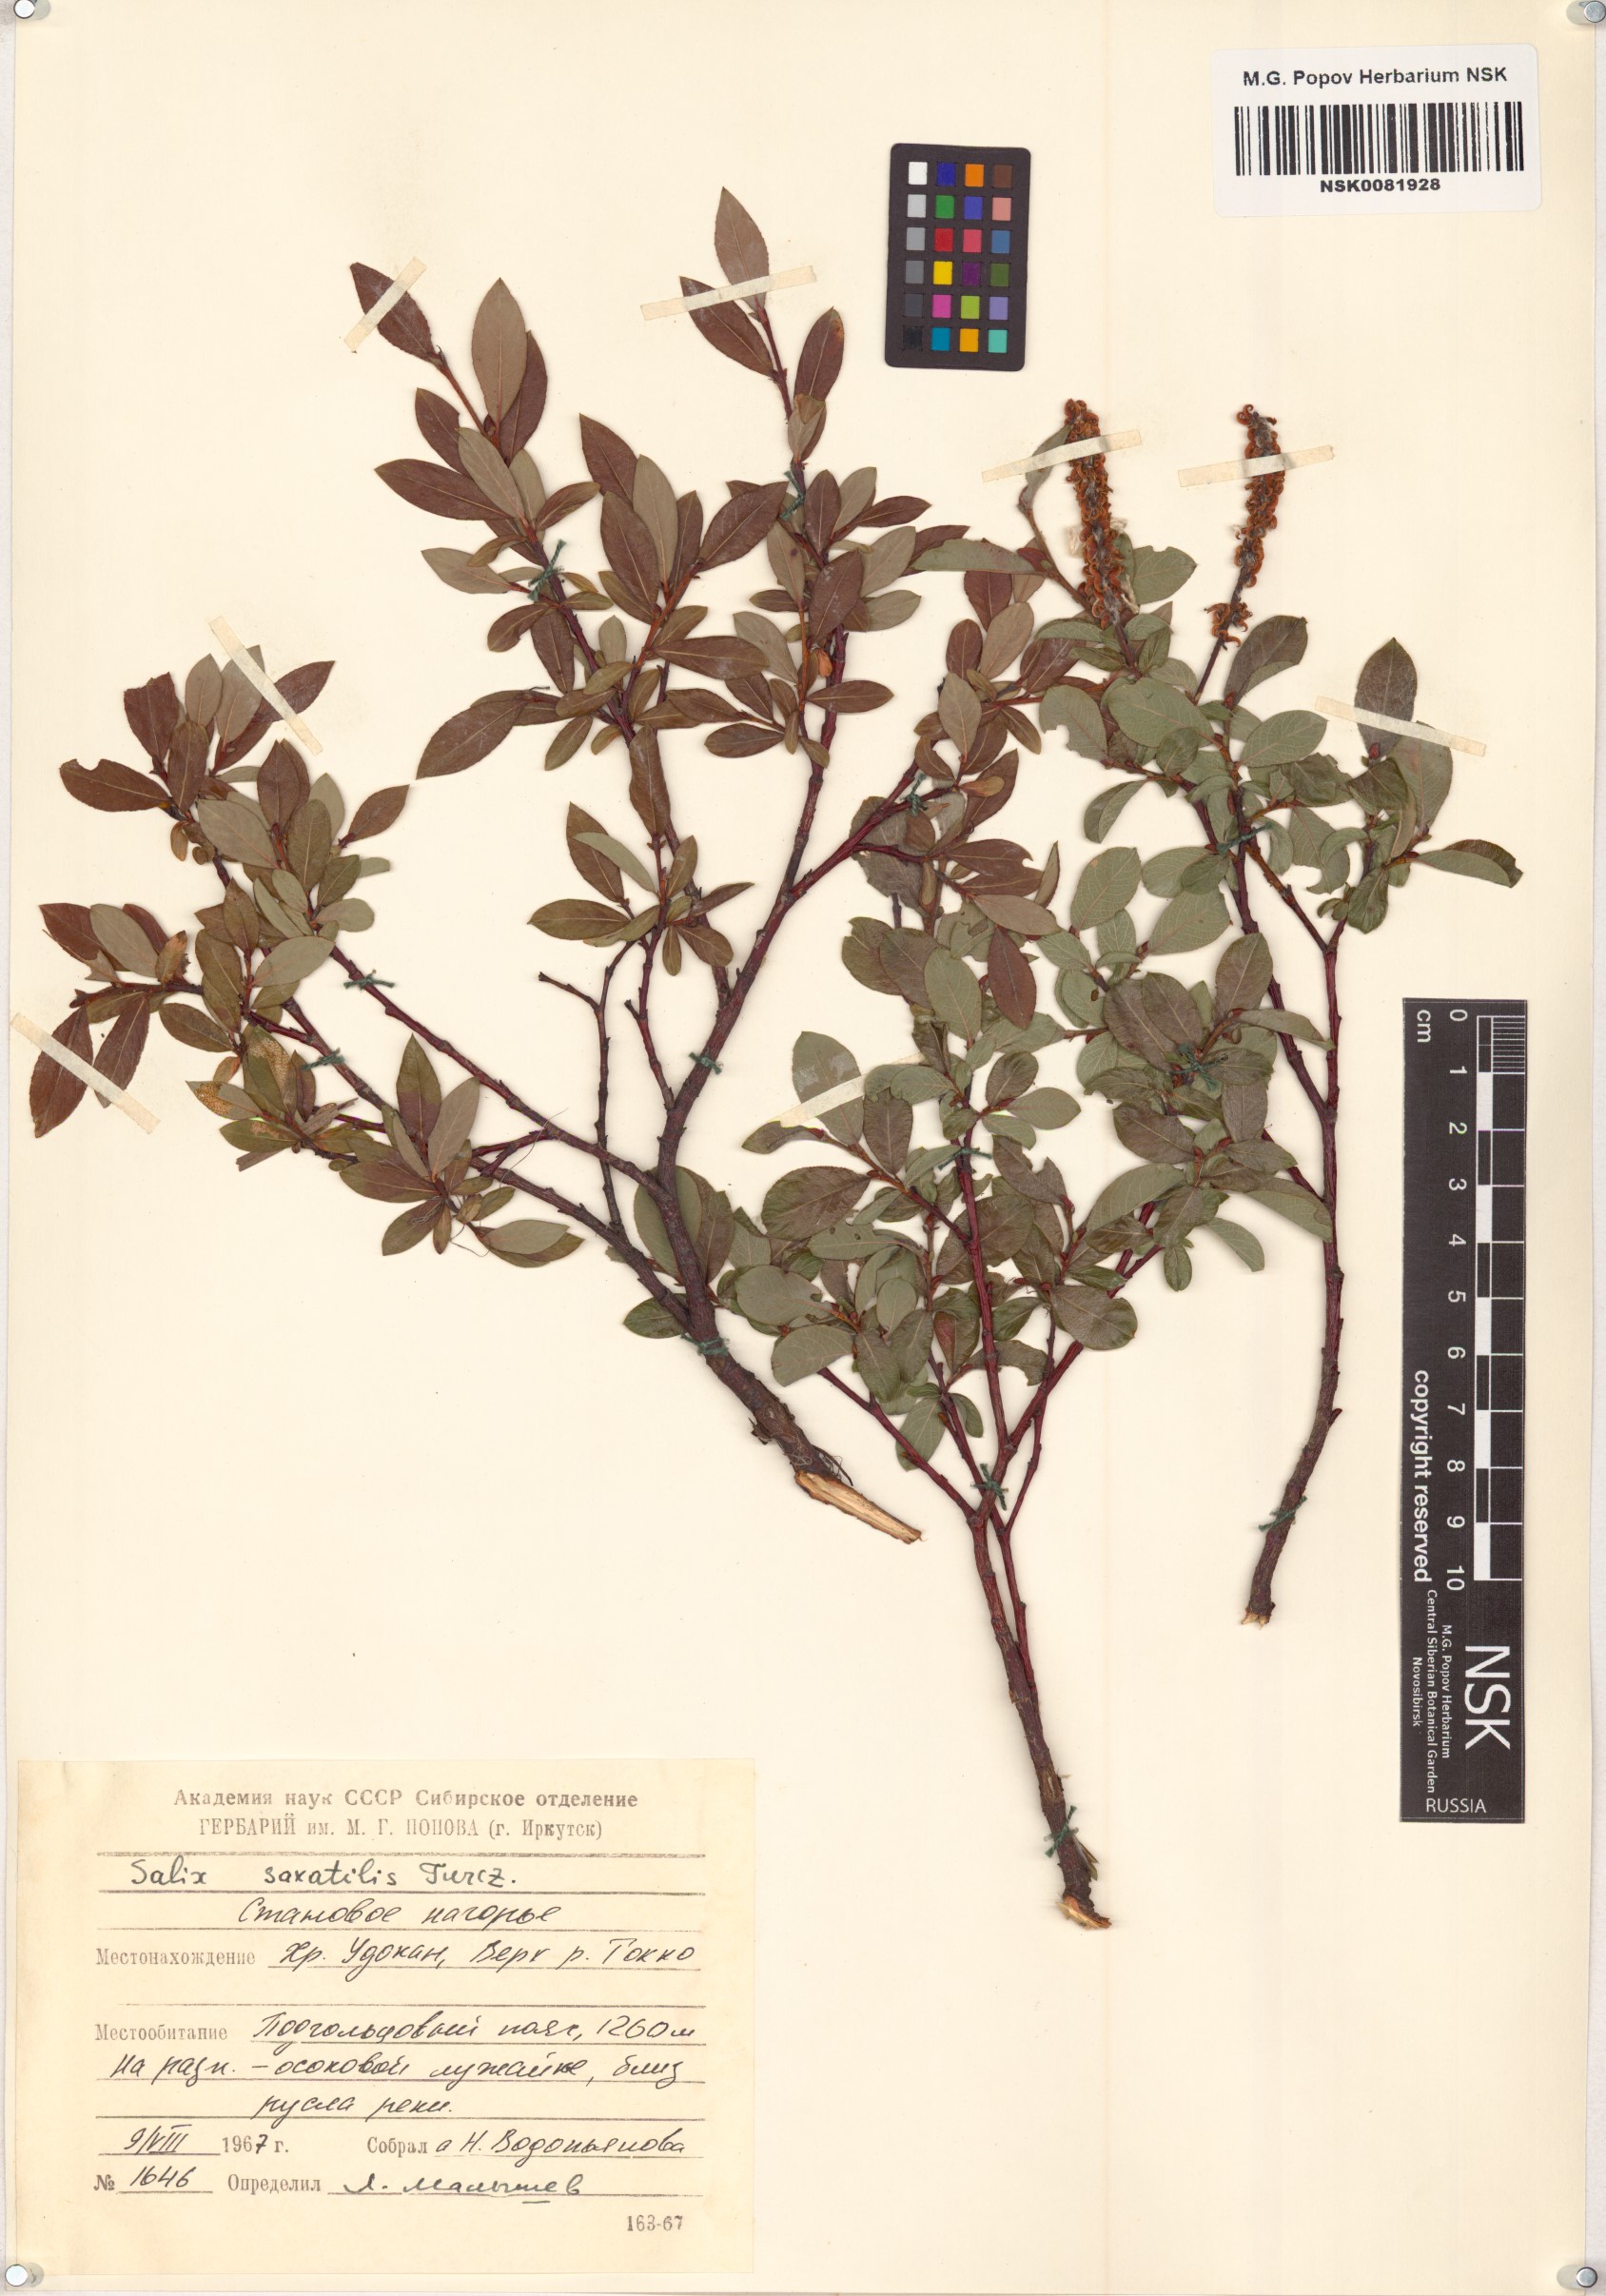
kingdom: Plantae
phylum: Tracheophyta
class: Magnoliopsida
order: Malpighiales
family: Salicaceae
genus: Salix
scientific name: Salix saxatilis
